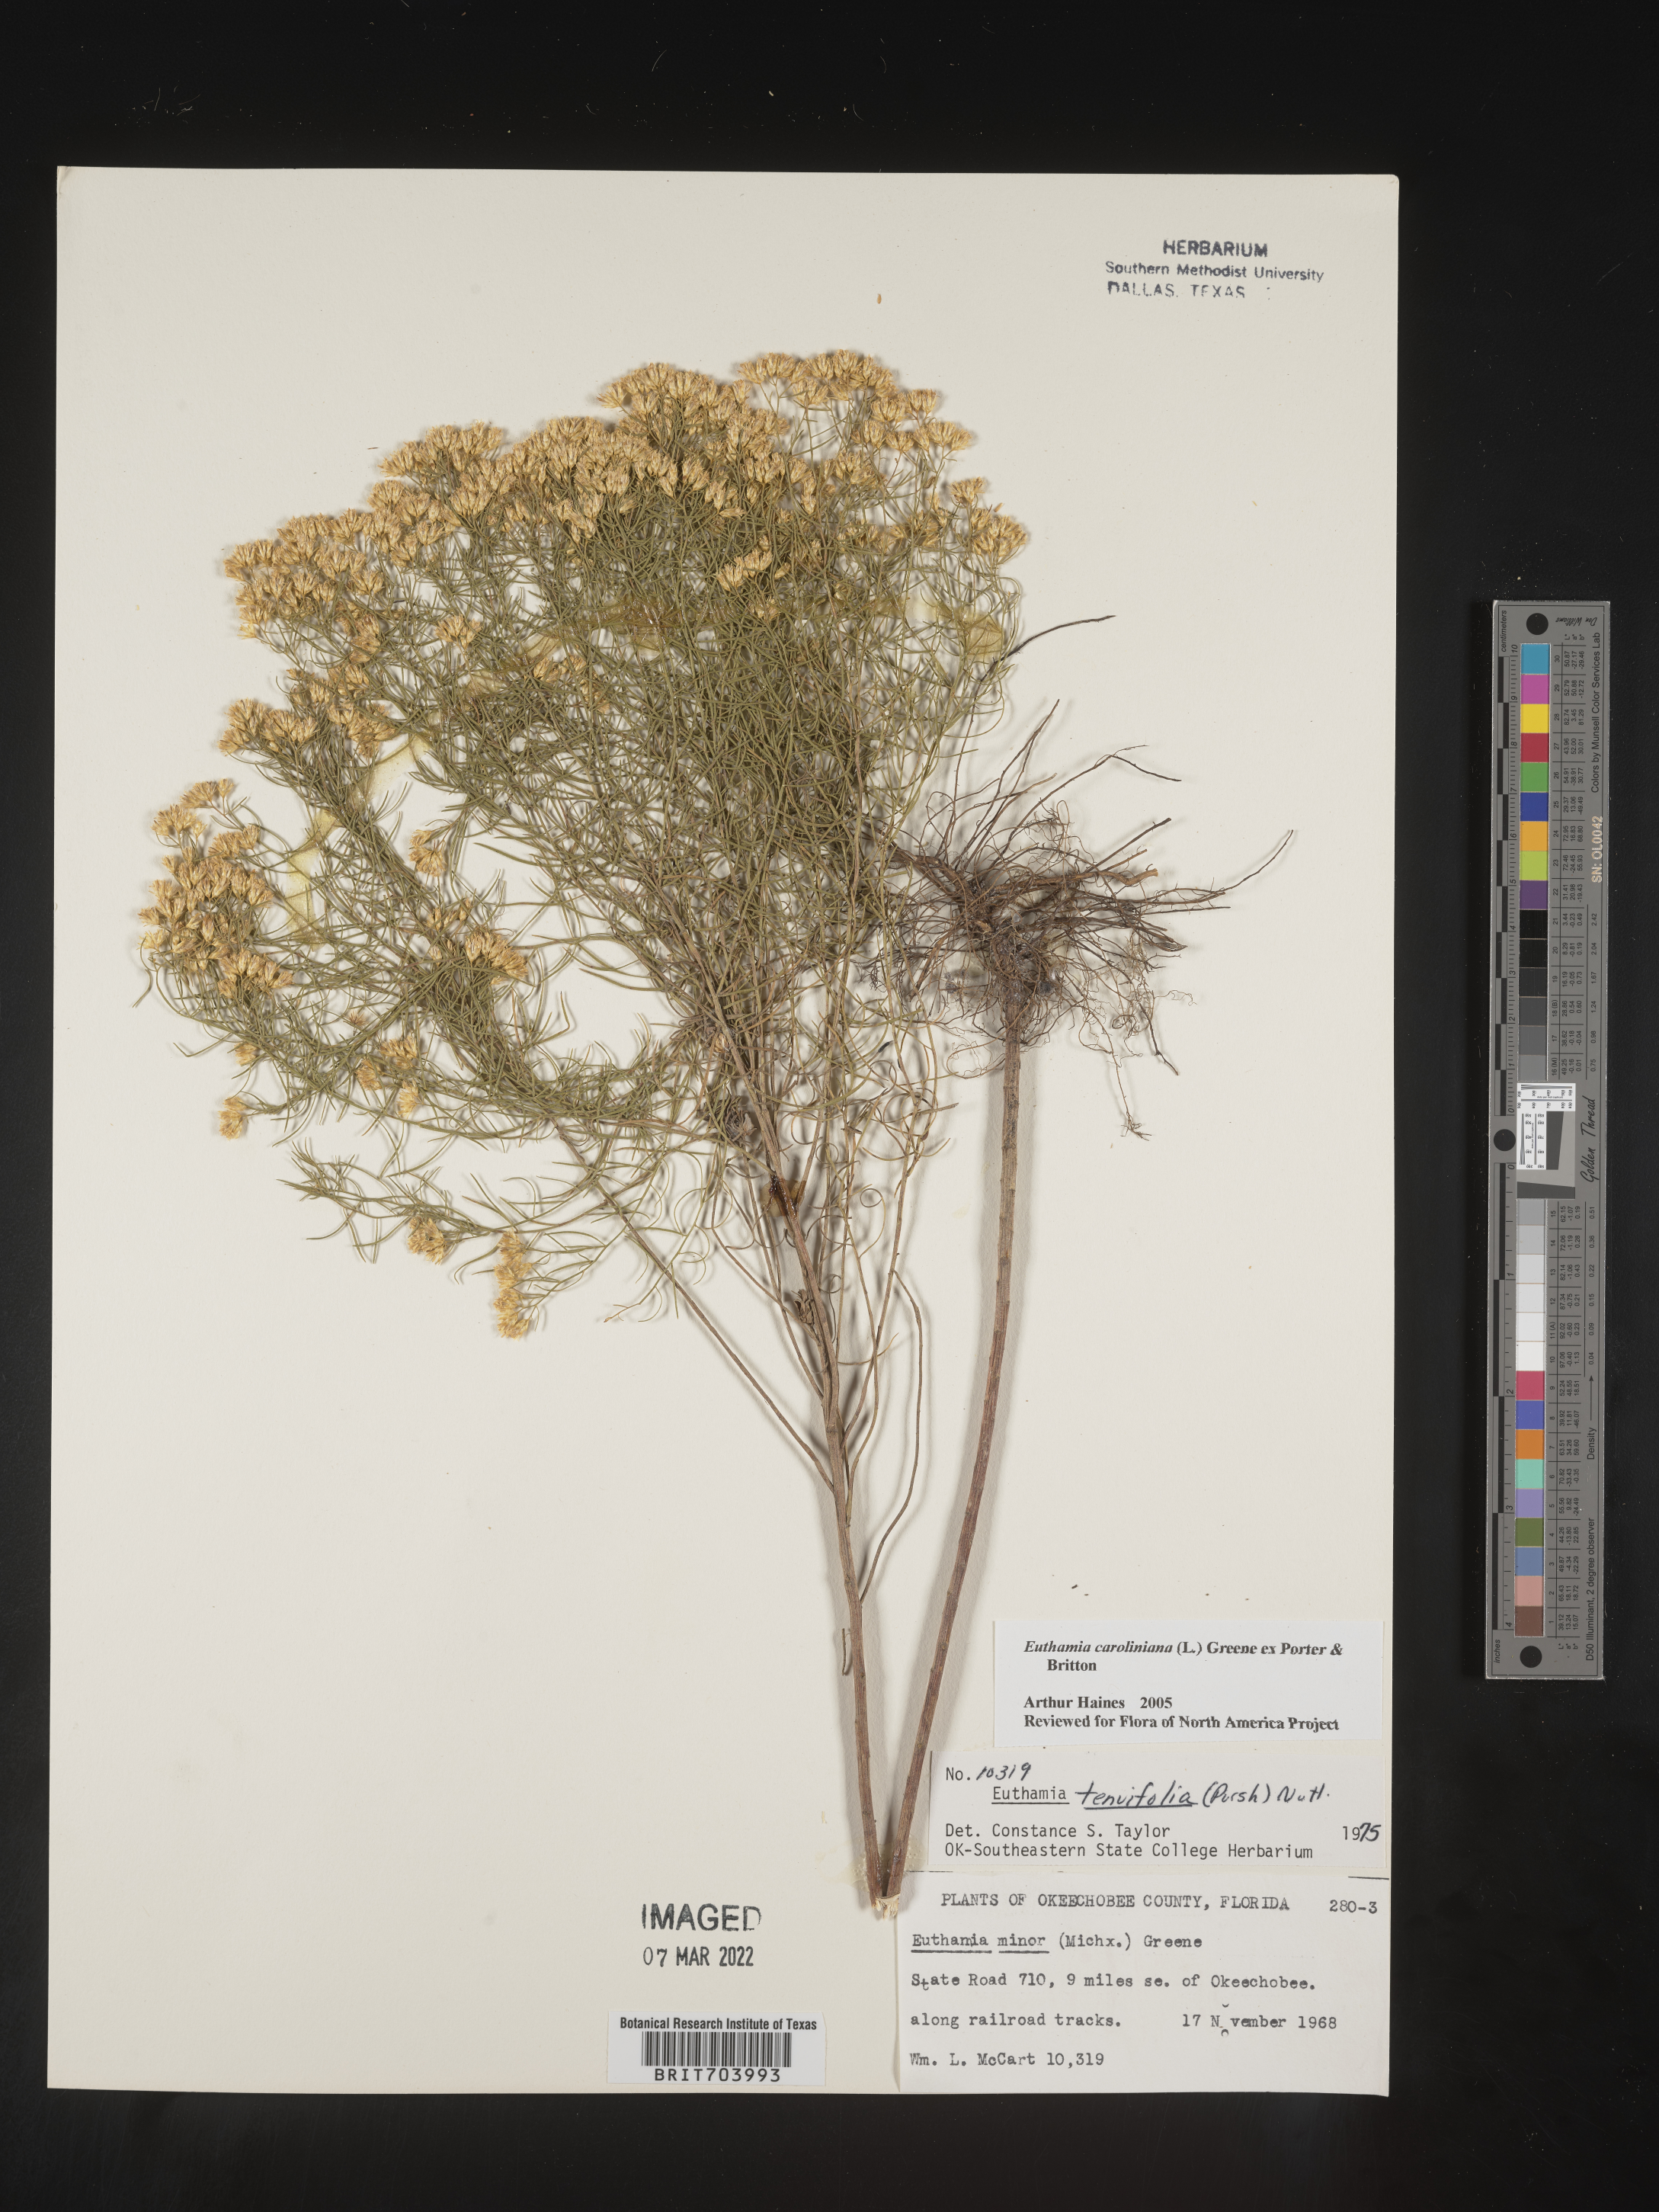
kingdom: Plantae
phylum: Tracheophyta
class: Magnoliopsida
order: Asterales
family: Asteraceae
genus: Euthamia
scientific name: Euthamia caroliniana
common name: Coastal plain goldentop
